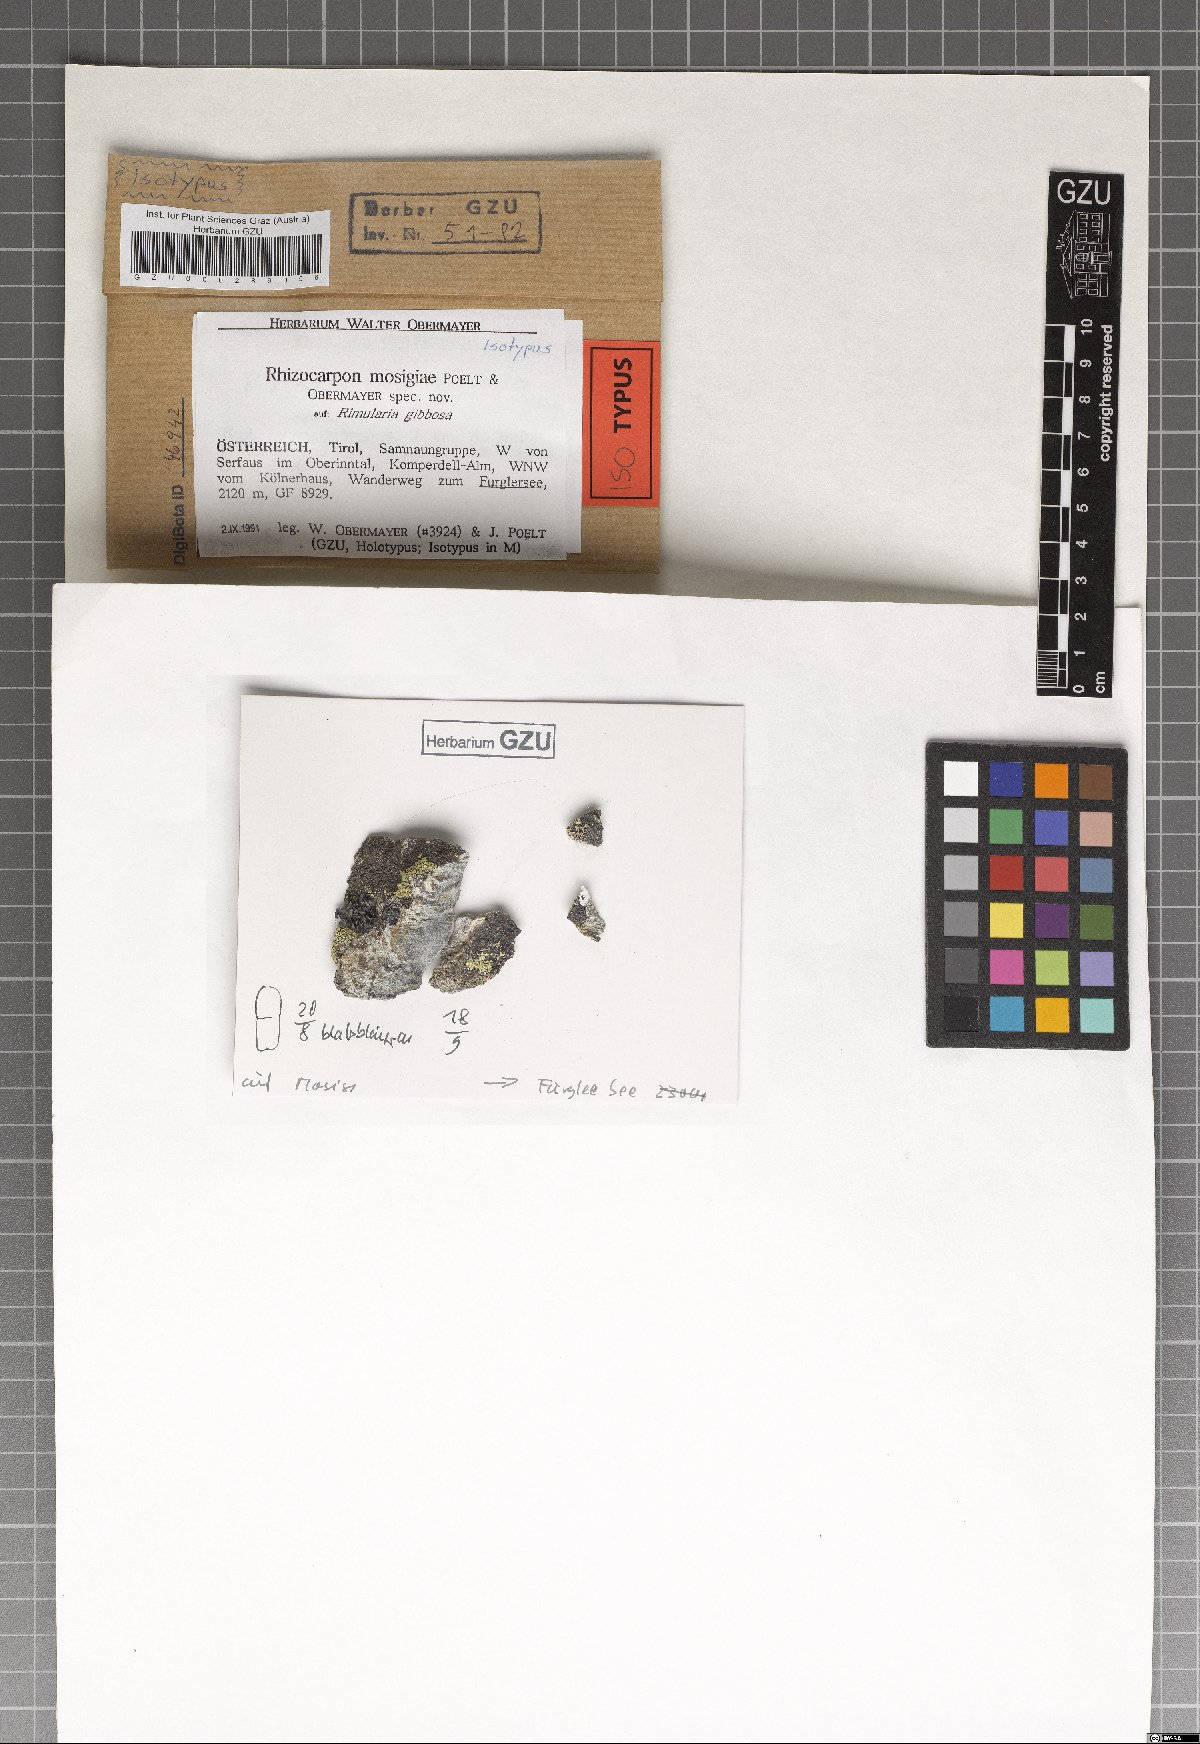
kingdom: Fungi
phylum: Ascomycota
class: Lecanoromycetes
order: Rhizocarpales
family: Rhizocarpaceae
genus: Rhizocarpon
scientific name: Rhizocarpon
